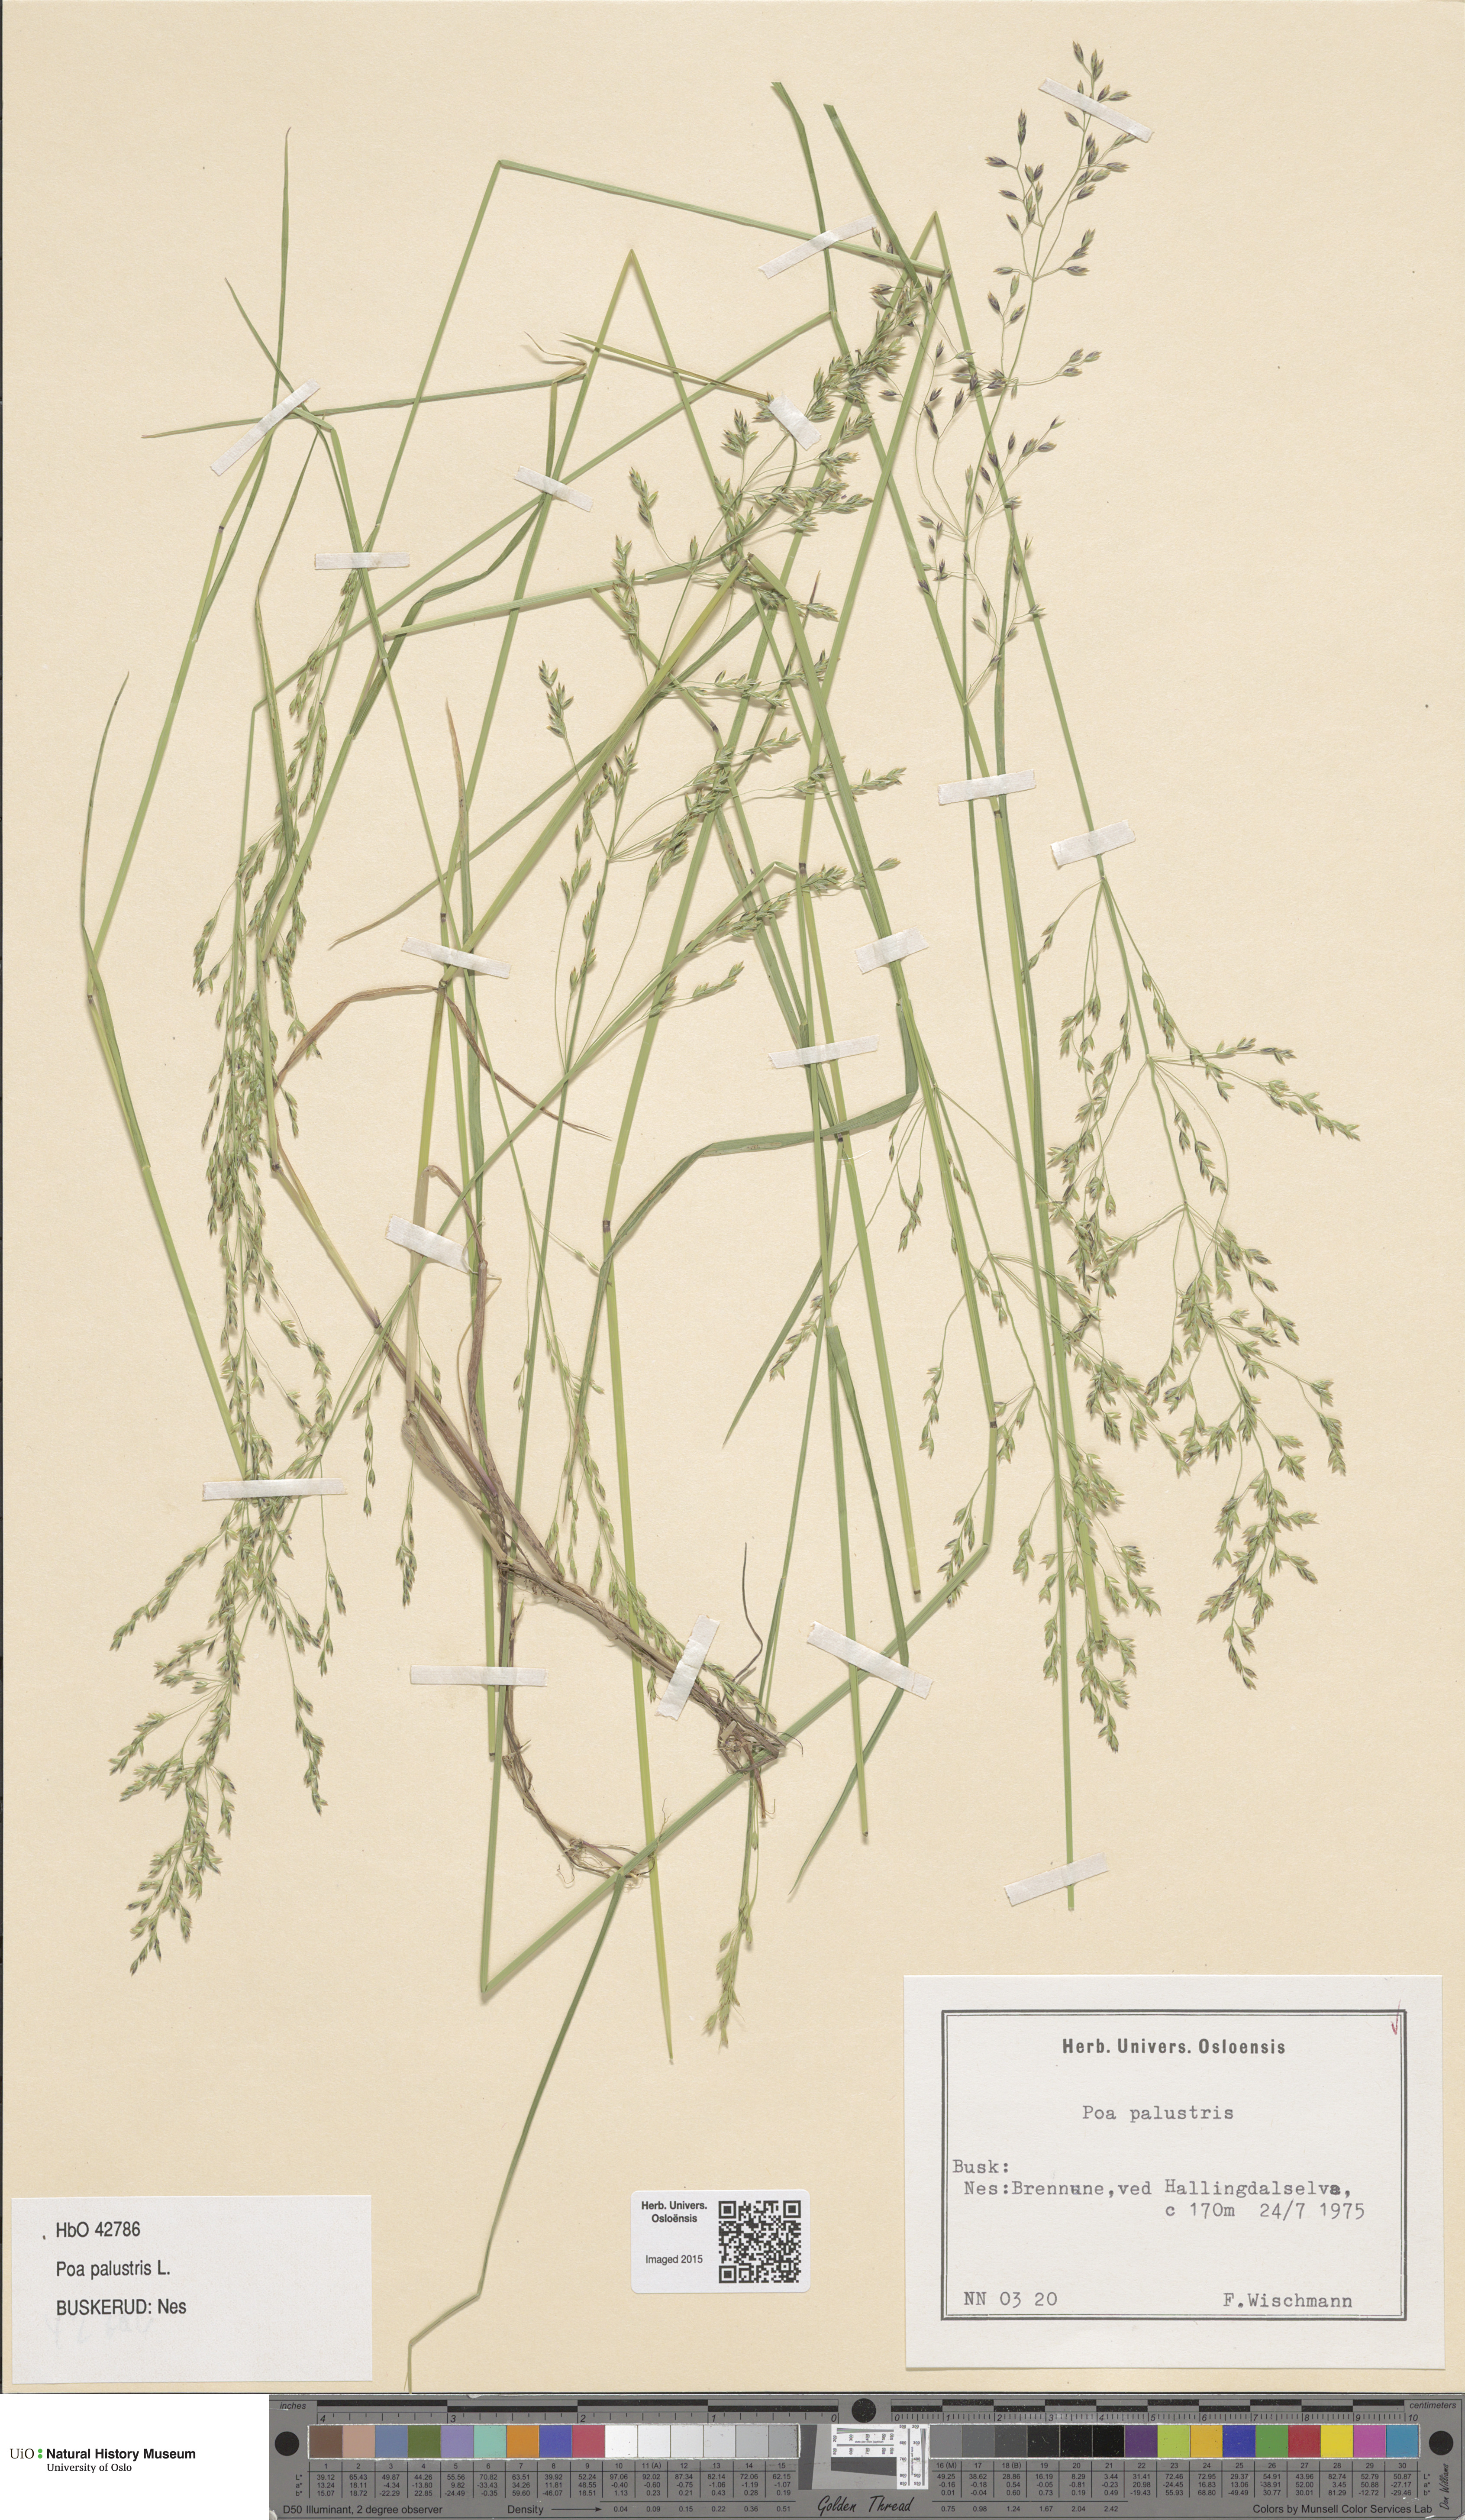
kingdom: Plantae
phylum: Tracheophyta
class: Liliopsida
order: Poales
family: Poaceae
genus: Poa
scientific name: Poa palustris
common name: Swamp meadow-grass
